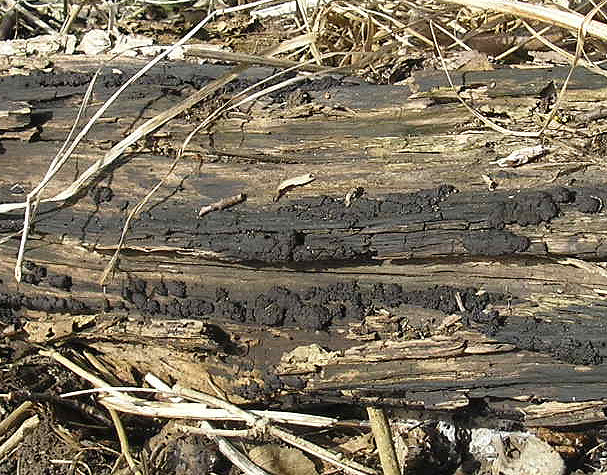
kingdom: Fungi
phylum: Ascomycota
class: Sordariomycetes
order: Xylariales
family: Hypoxylaceae
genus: Jackrogersella
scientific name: Jackrogersella multiformis
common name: foranderlig kulbær
